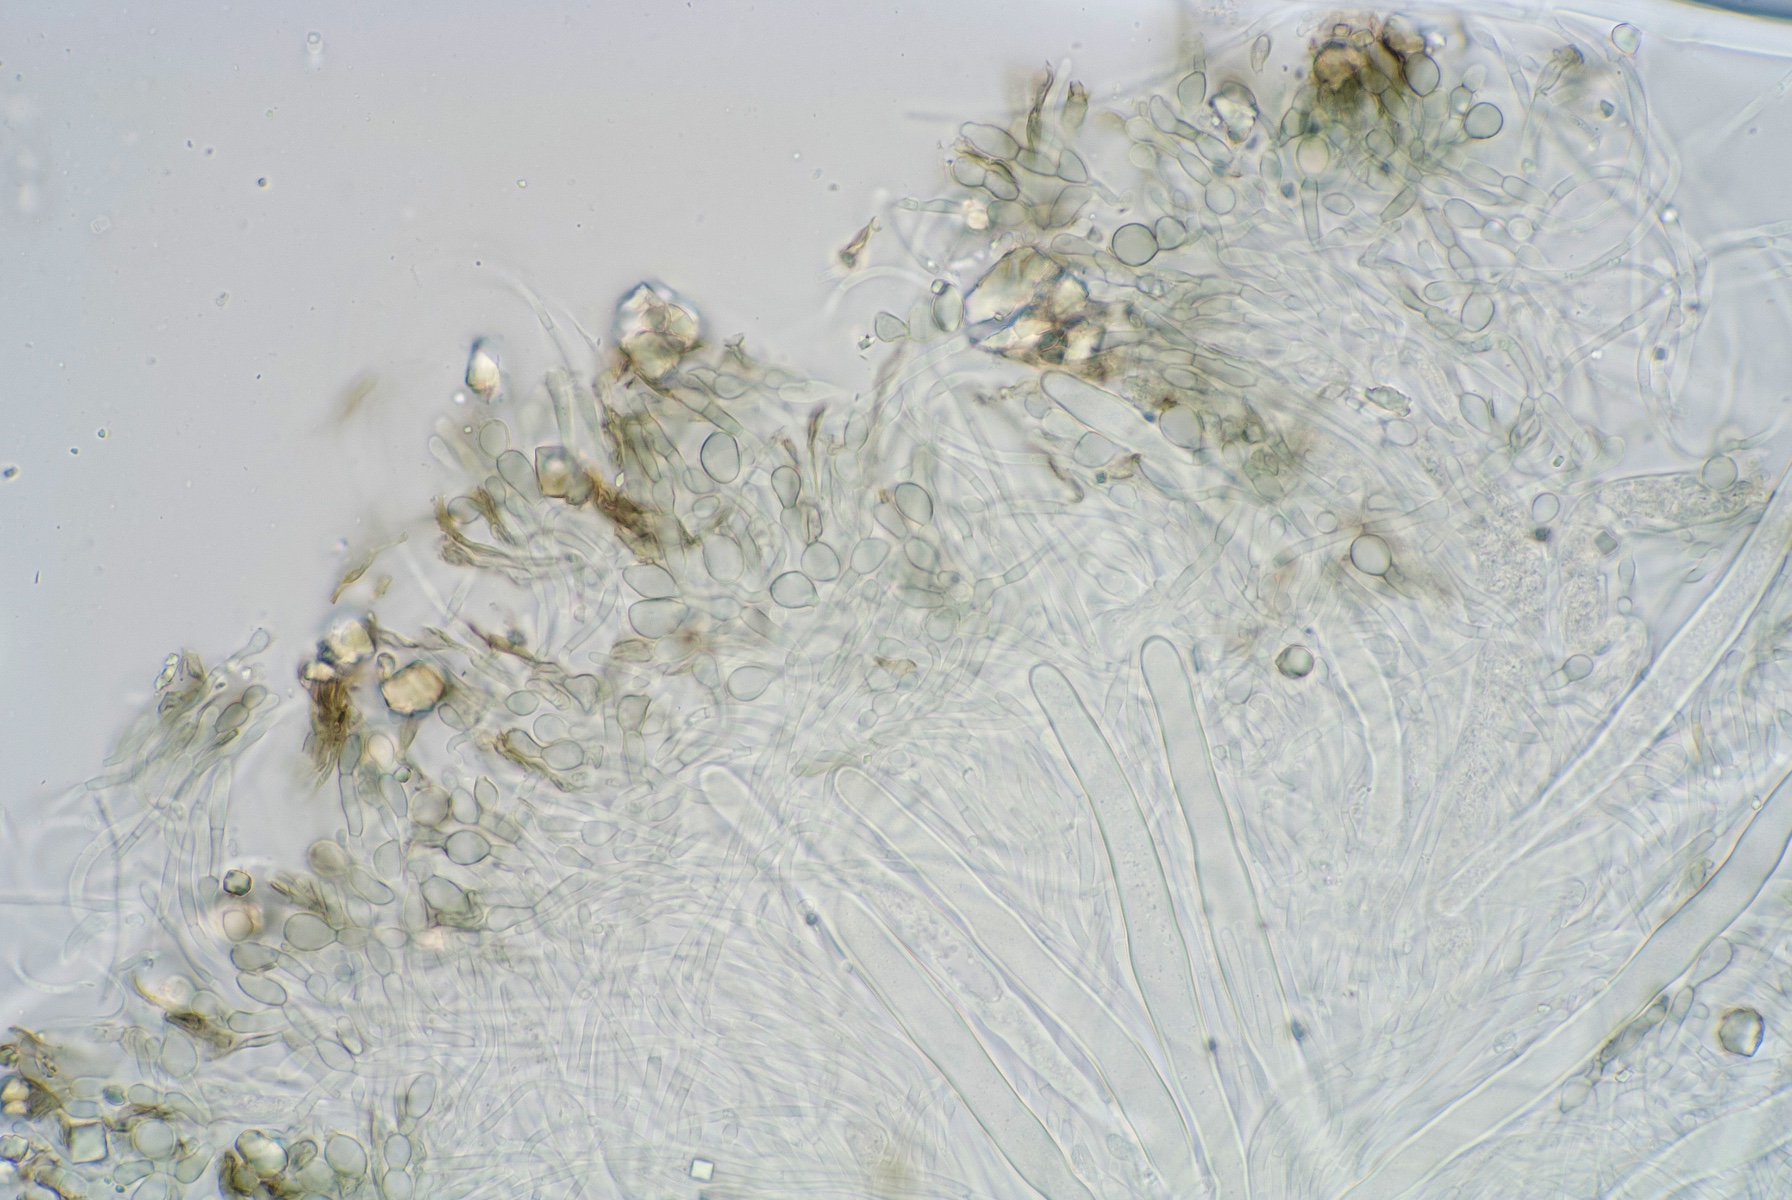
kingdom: Fungi
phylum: Ascomycota
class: Lecanoromycetes
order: Ostropales
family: Stictidaceae
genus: Schizoxylon
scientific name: Schizoxylon
